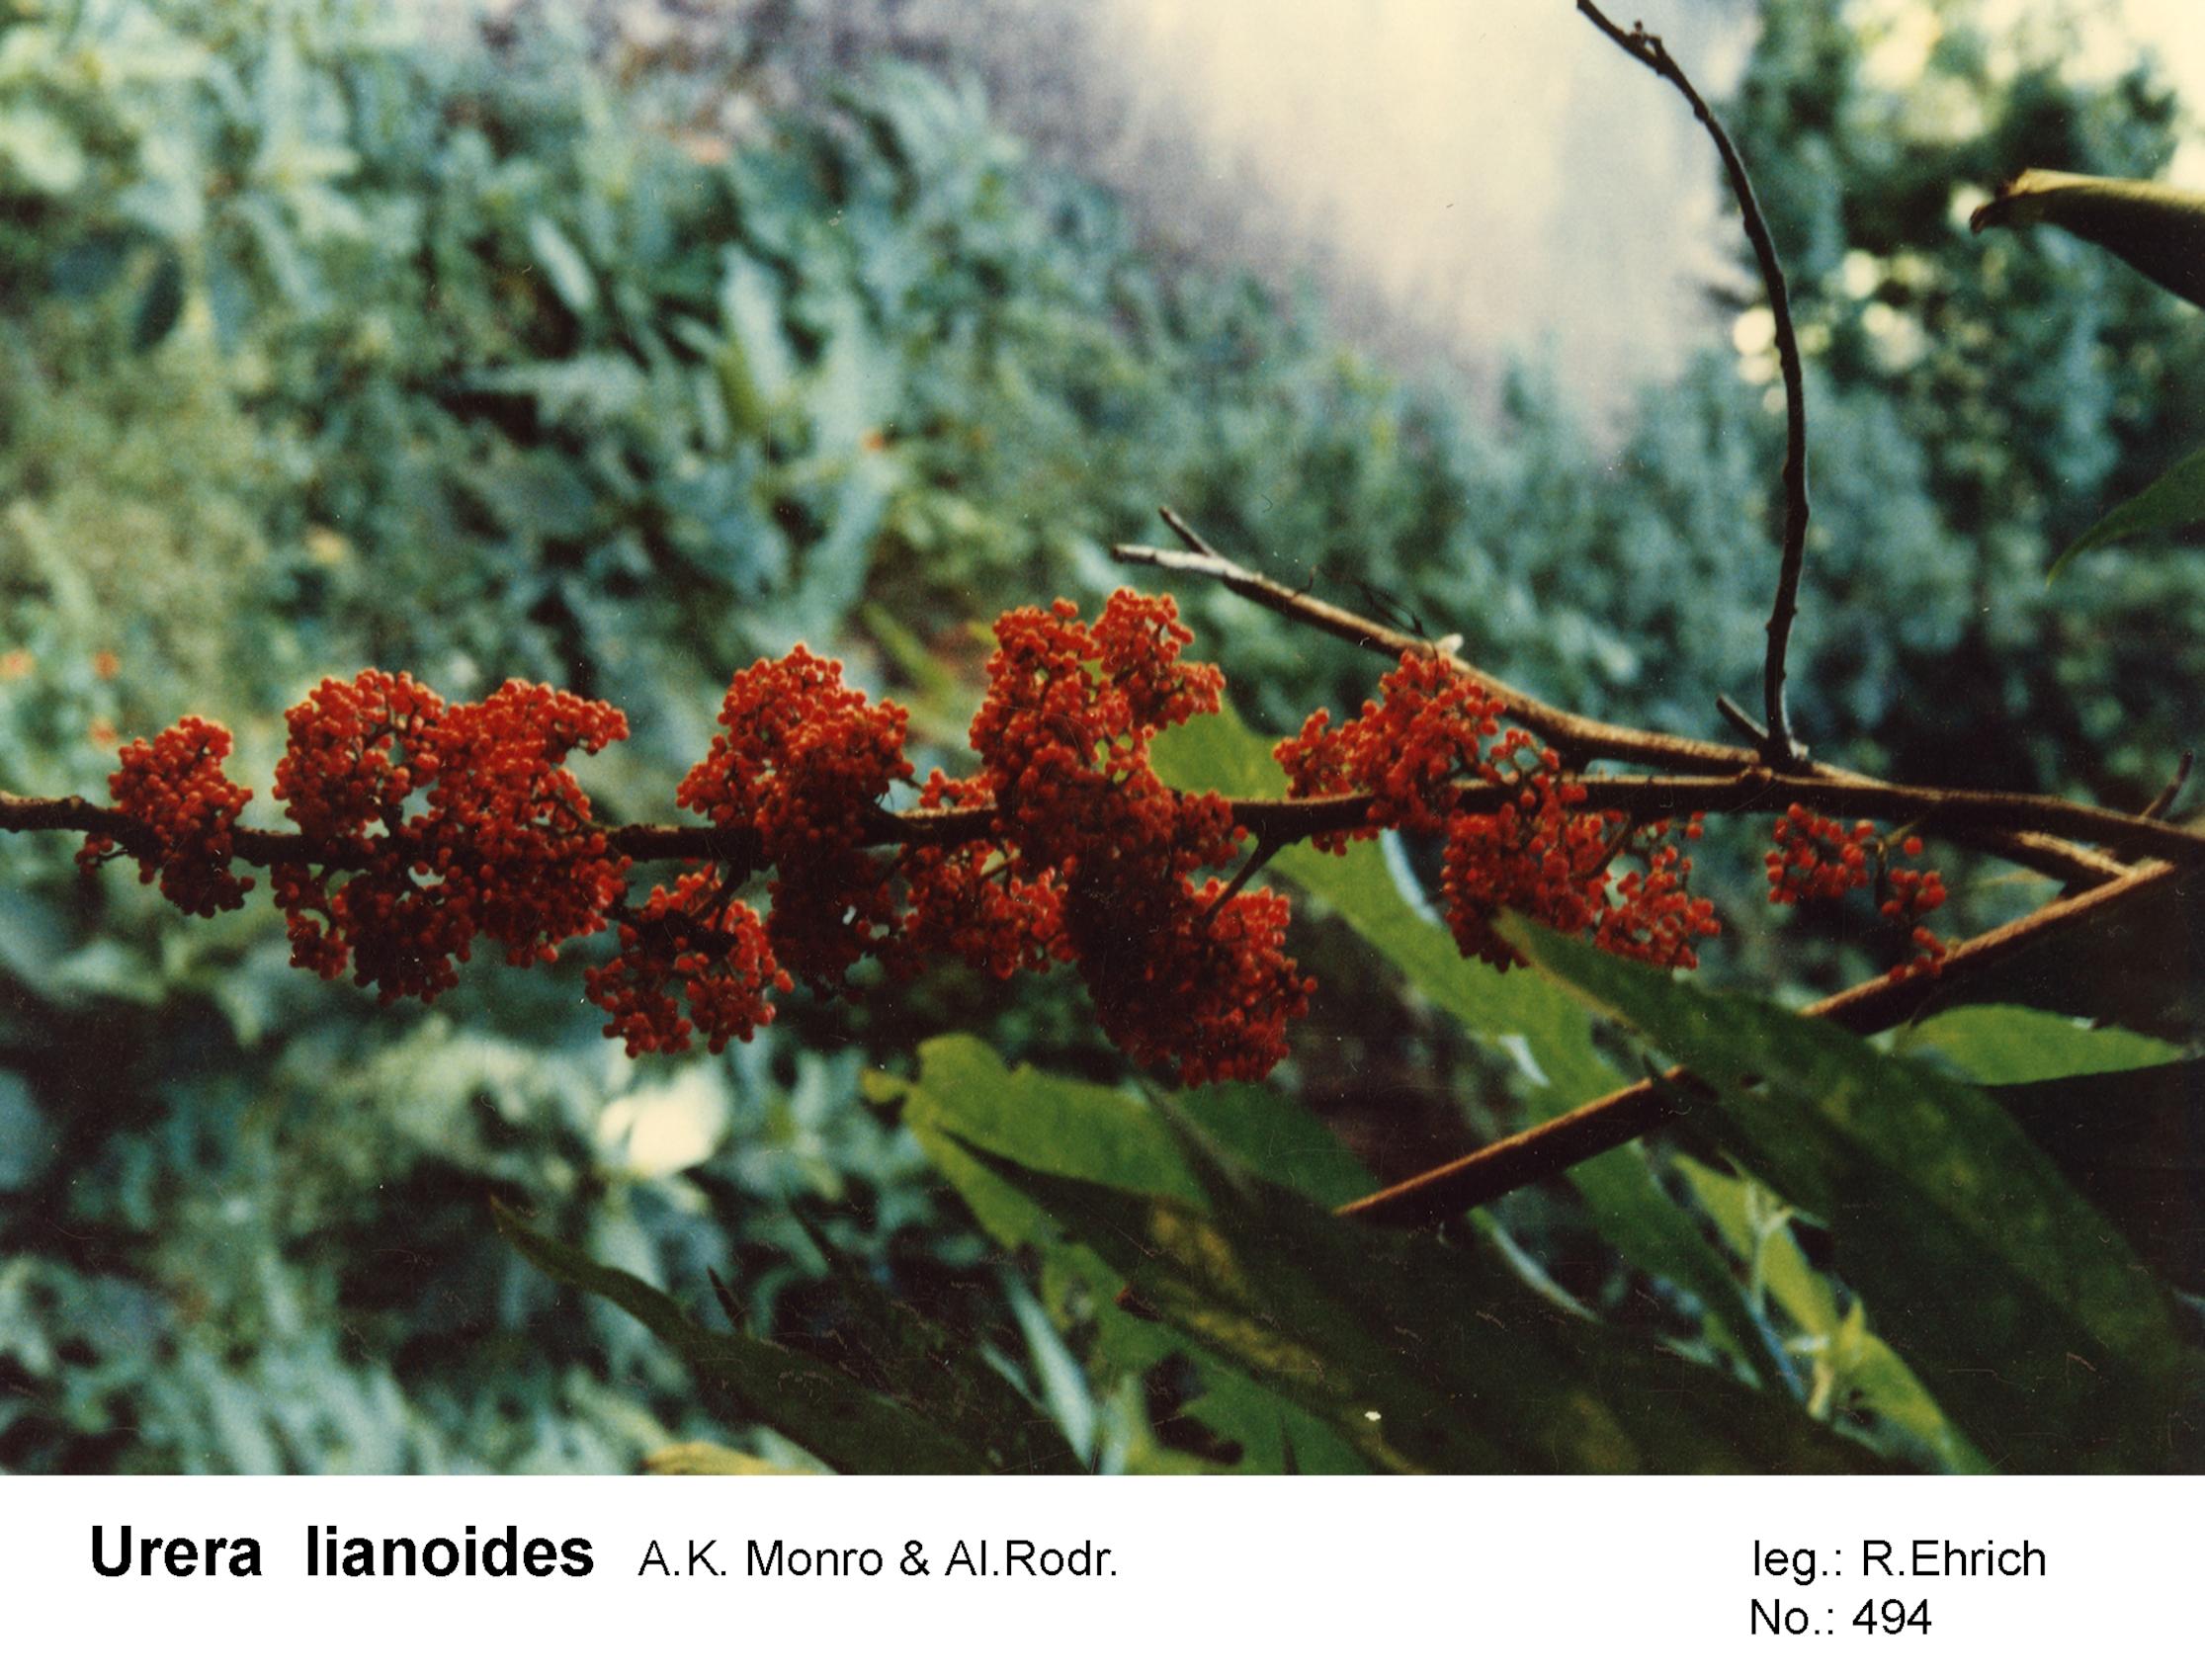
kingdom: Plantae
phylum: Tracheophyta
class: Magnoliopsida
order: Rosales
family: Urticaceae
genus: Urera
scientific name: Urera lianoides
